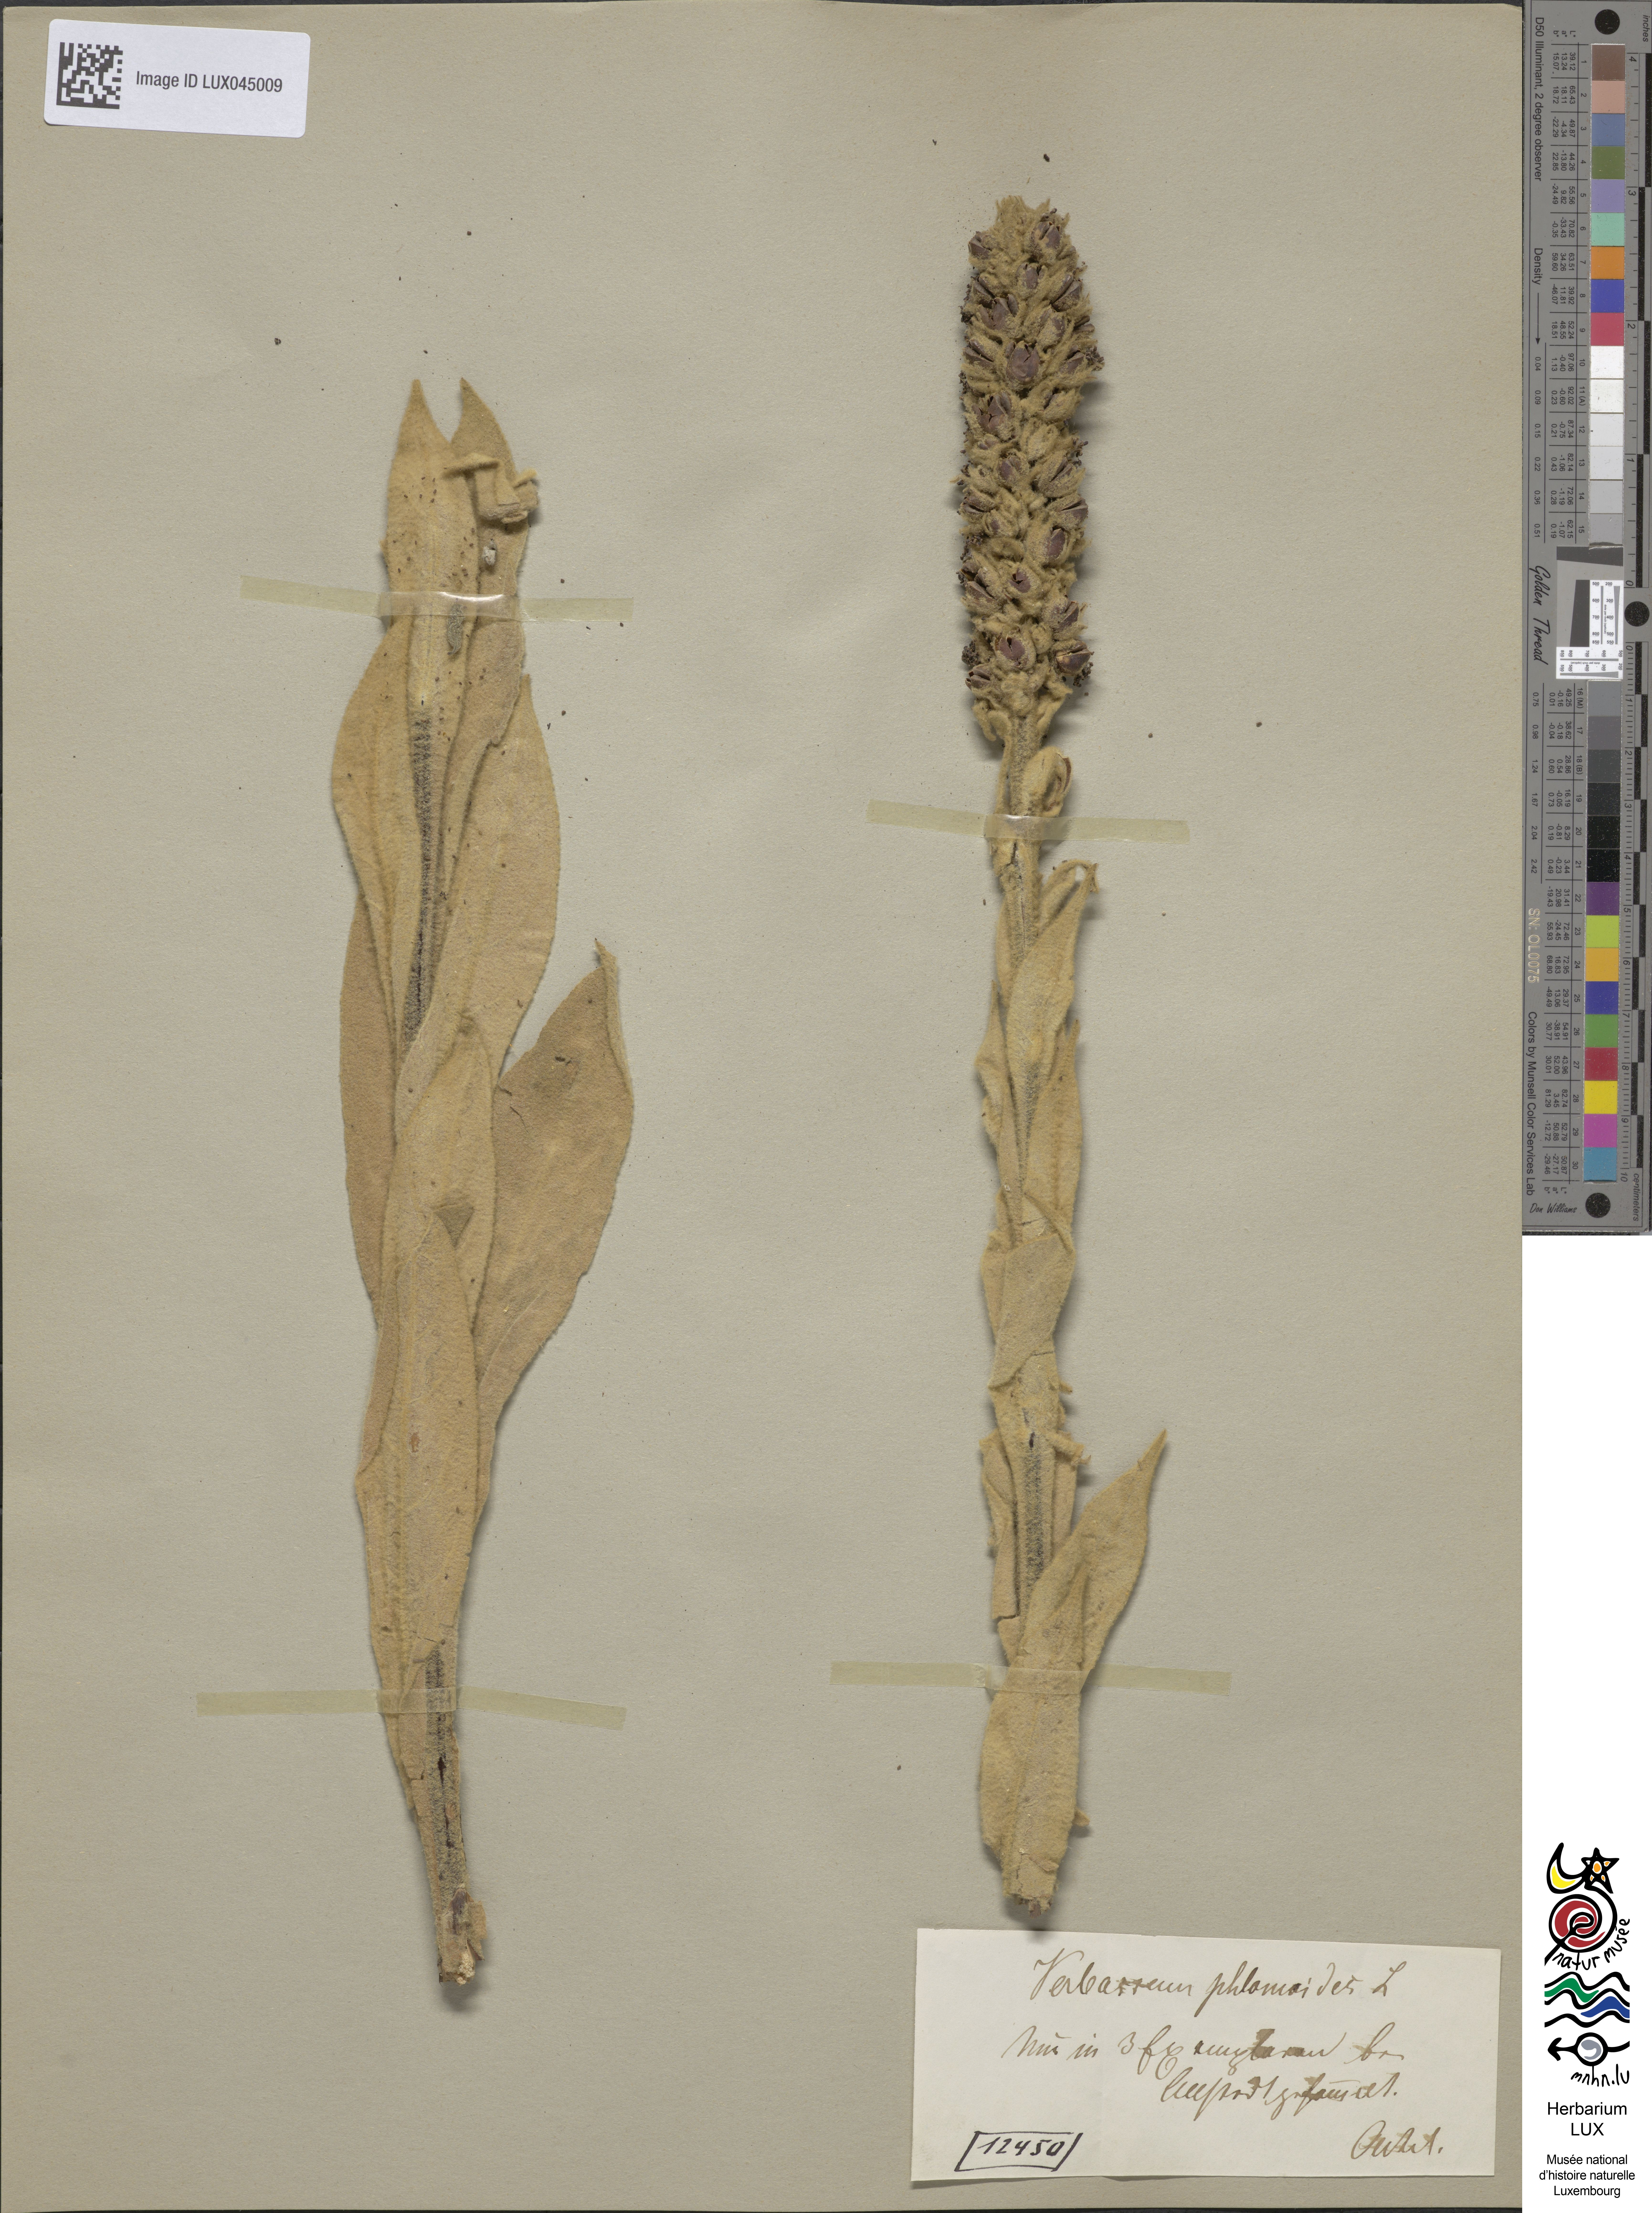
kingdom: Plantae
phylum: Tracheophyta
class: Magnoliopsida
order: Lamiales
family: Scrophulariaceae
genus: Verbascum
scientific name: Verbascum phlomoides
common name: Orange mullein
